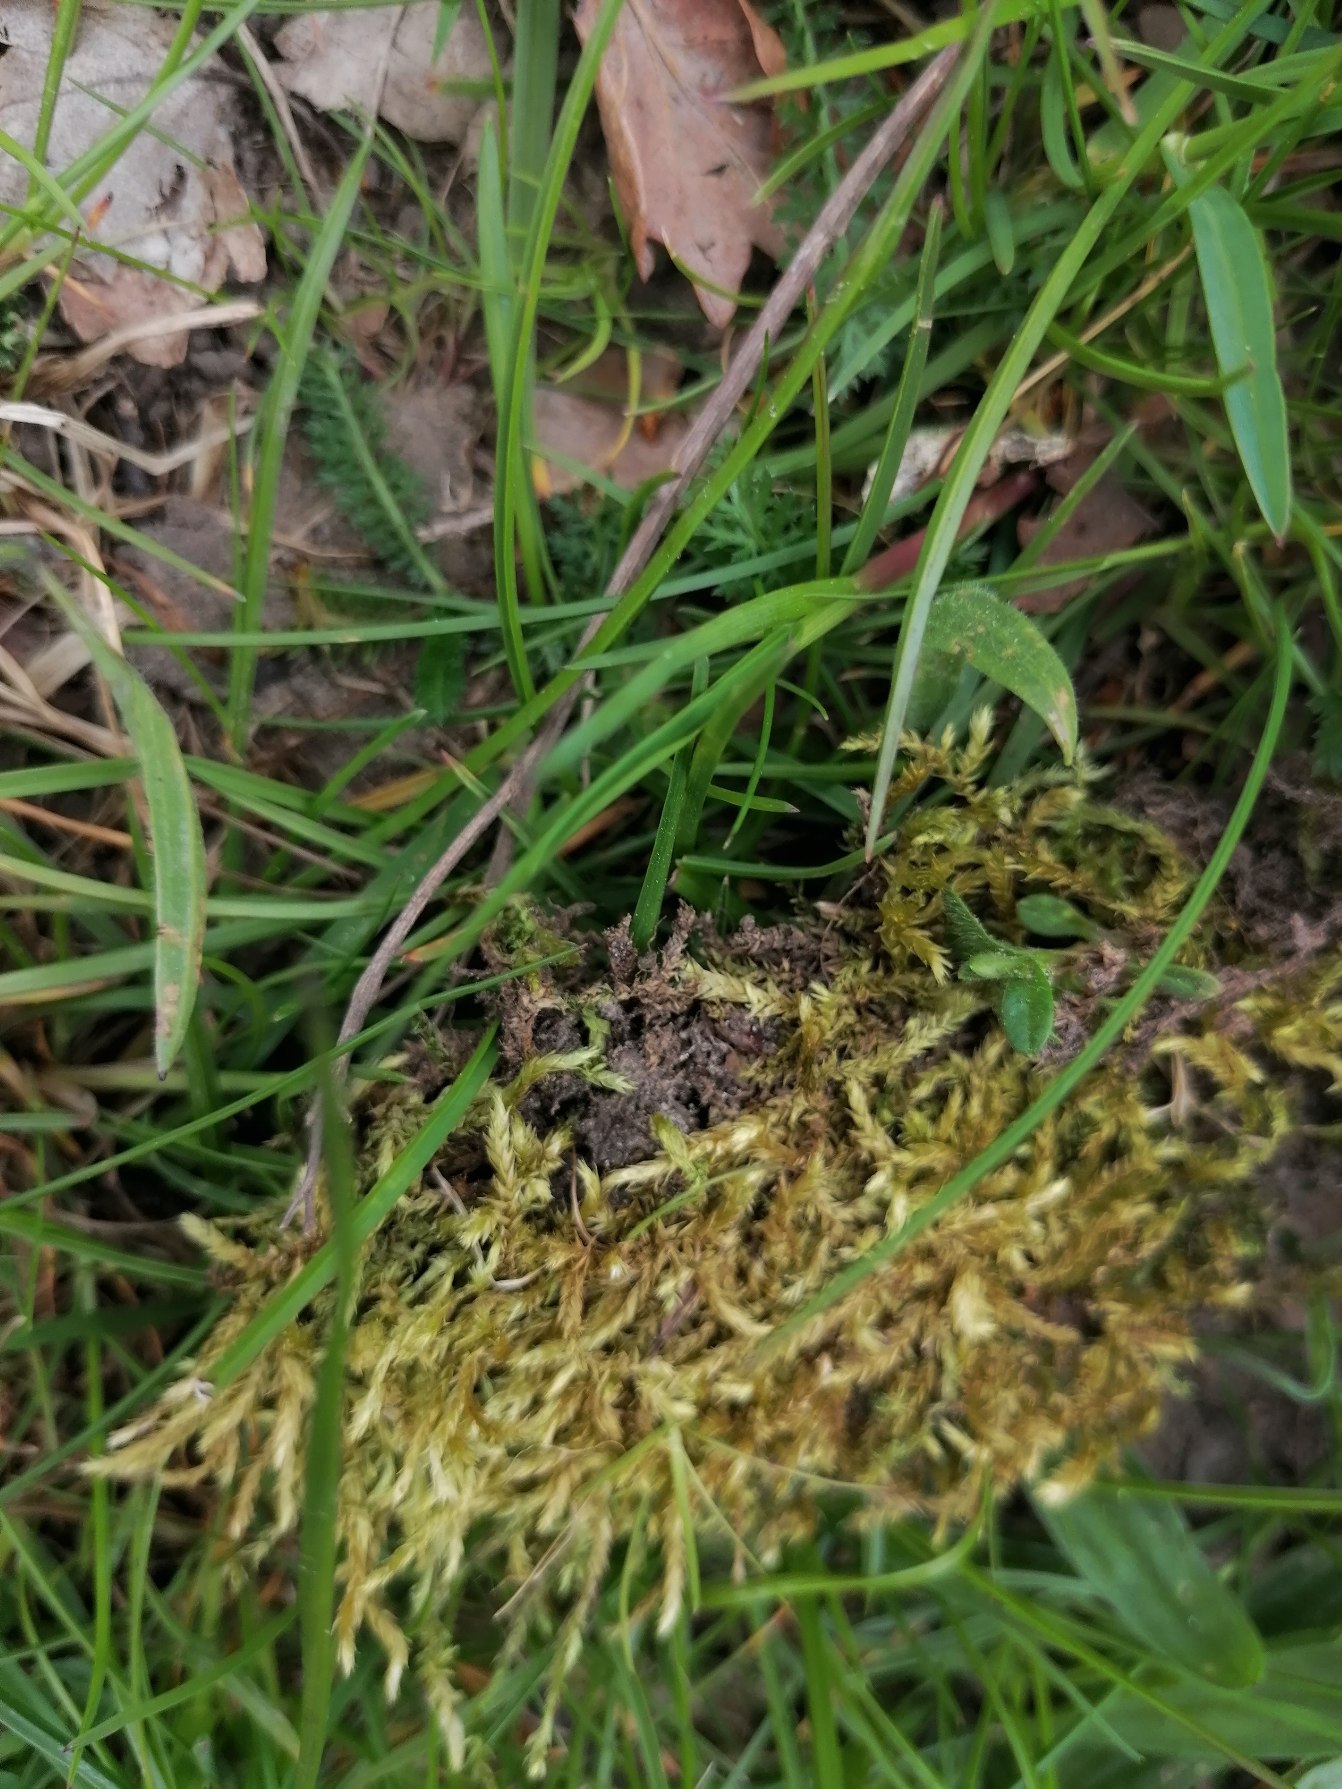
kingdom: Plantae
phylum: Bryophyta
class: Bryopsida
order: Hypnales
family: Brachytheciaceae
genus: Brachythecium
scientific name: Brachythecium rutabulum
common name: Almindelig kortkapsel
